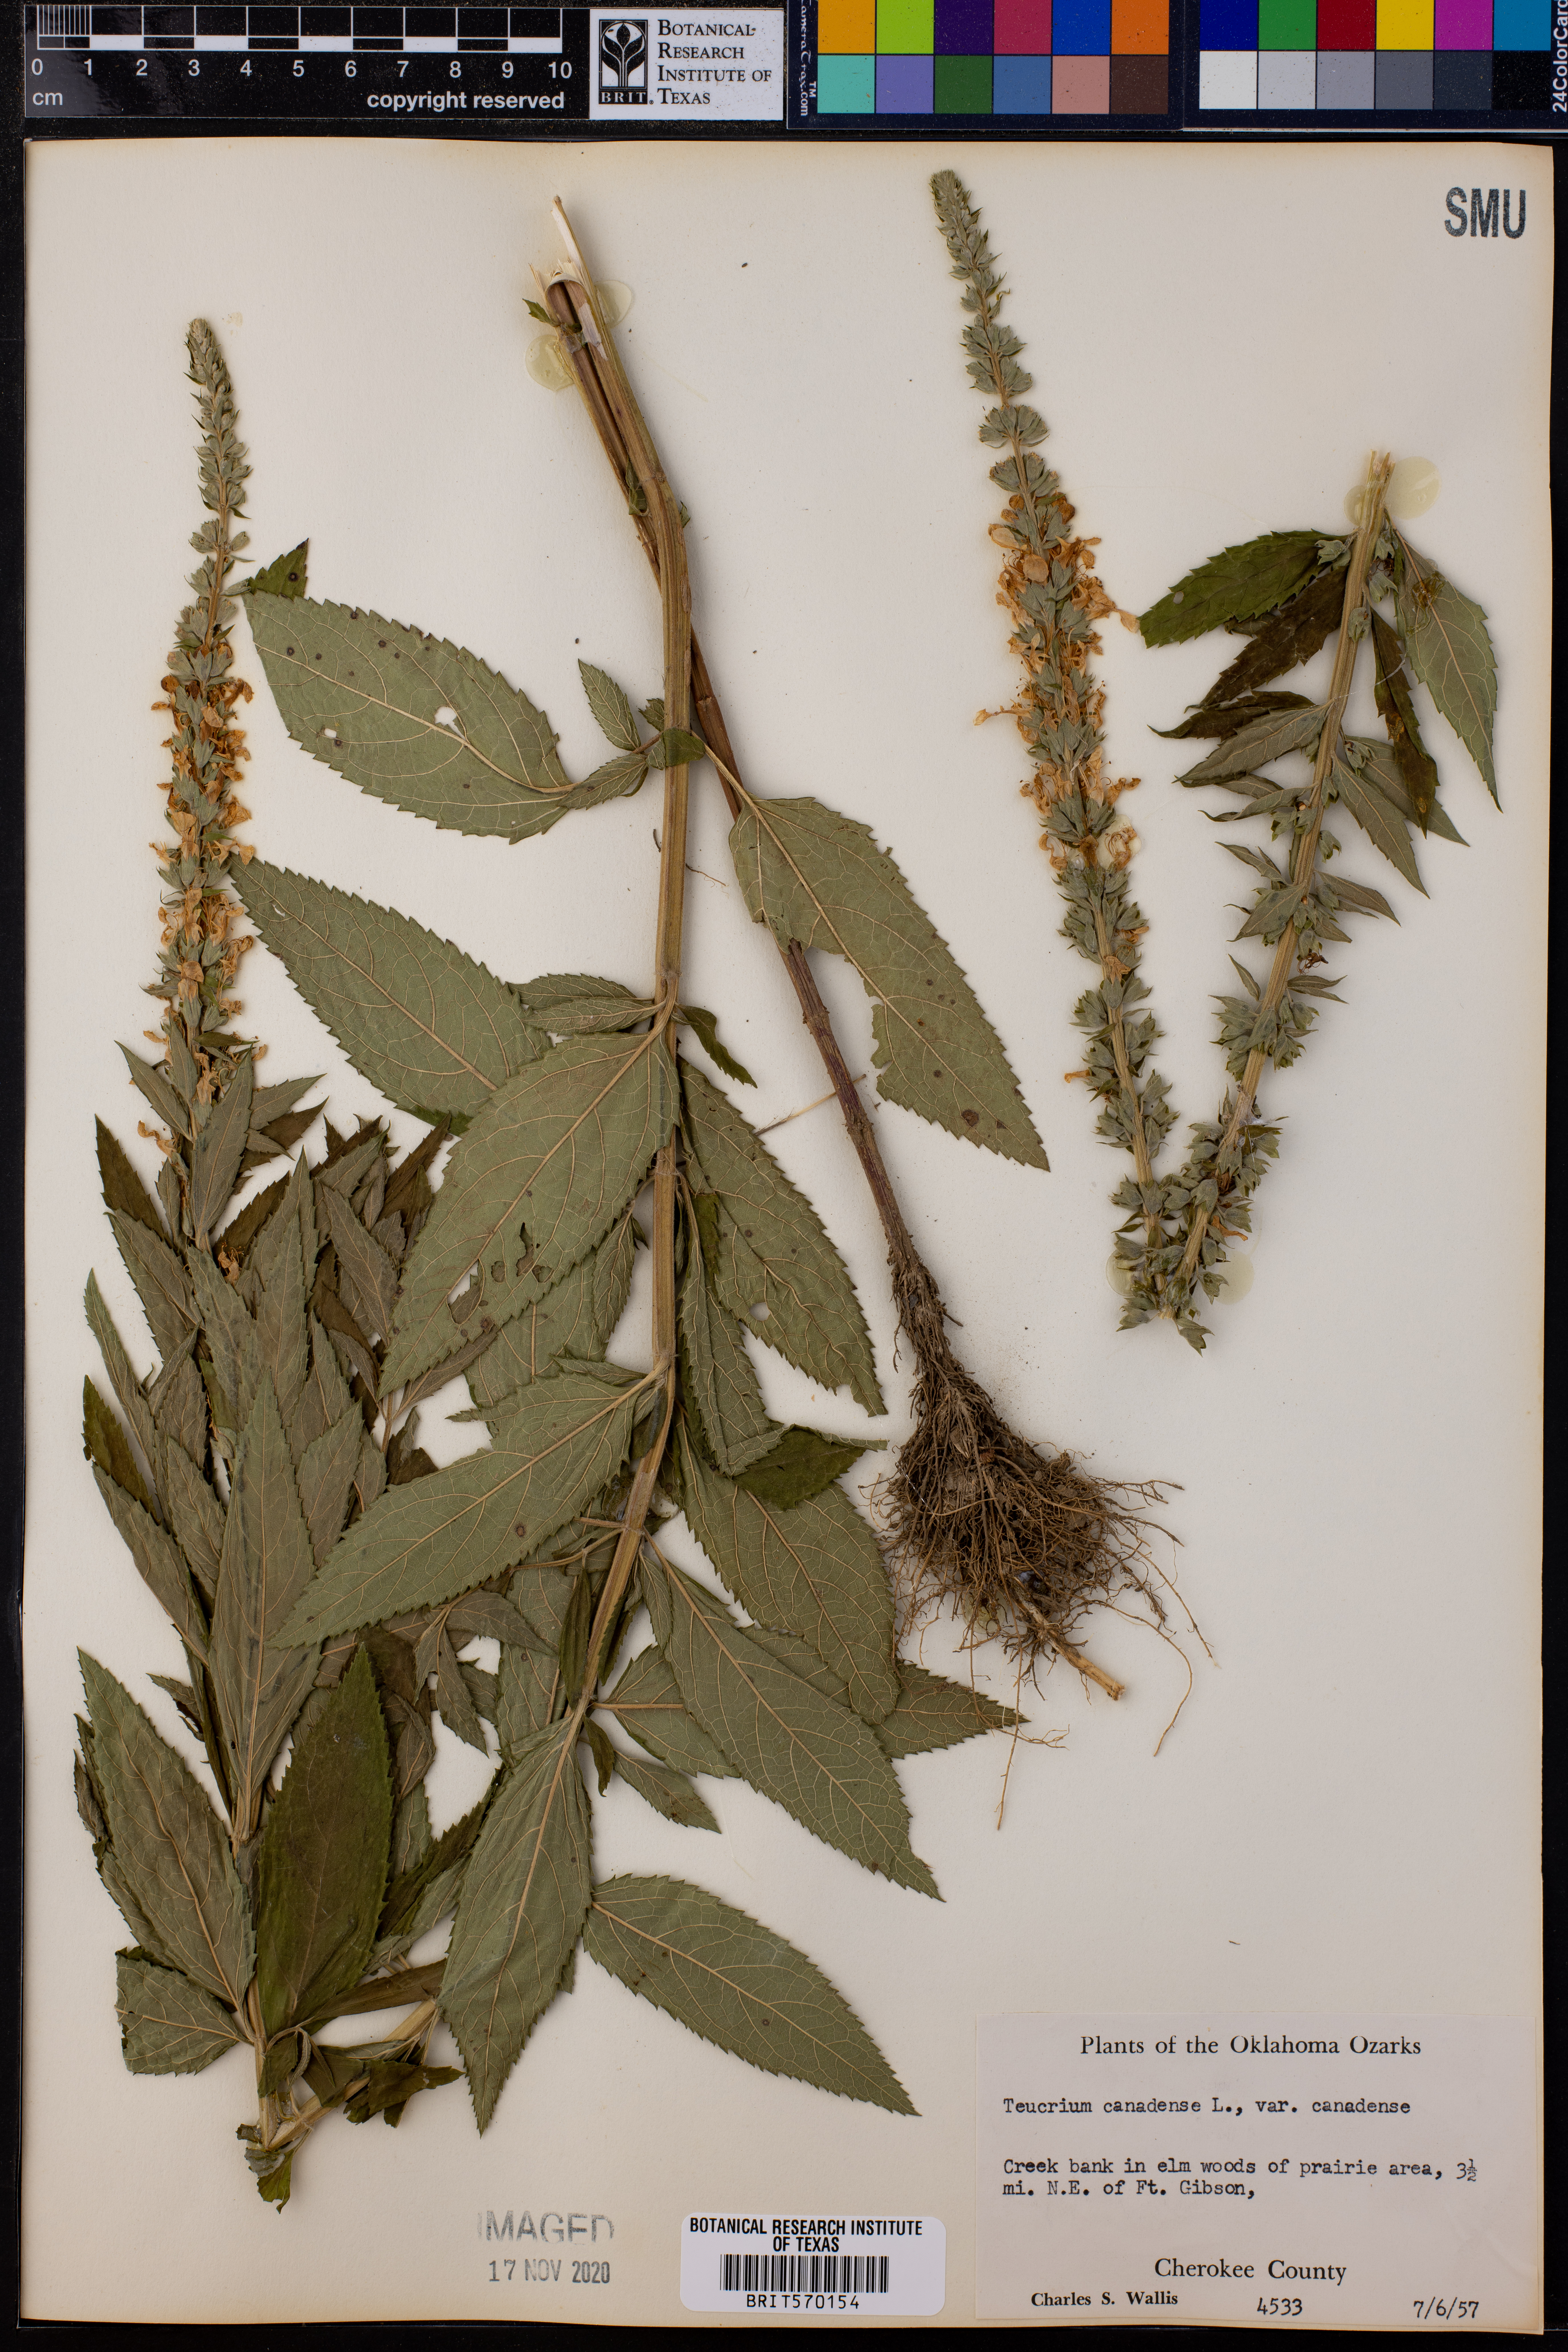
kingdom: Plantae
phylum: Tracheophyta
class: Magnoliopsida
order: Lamiales
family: Lamiaceae
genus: Teucrium
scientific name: Teucrium canadense
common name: American germander
